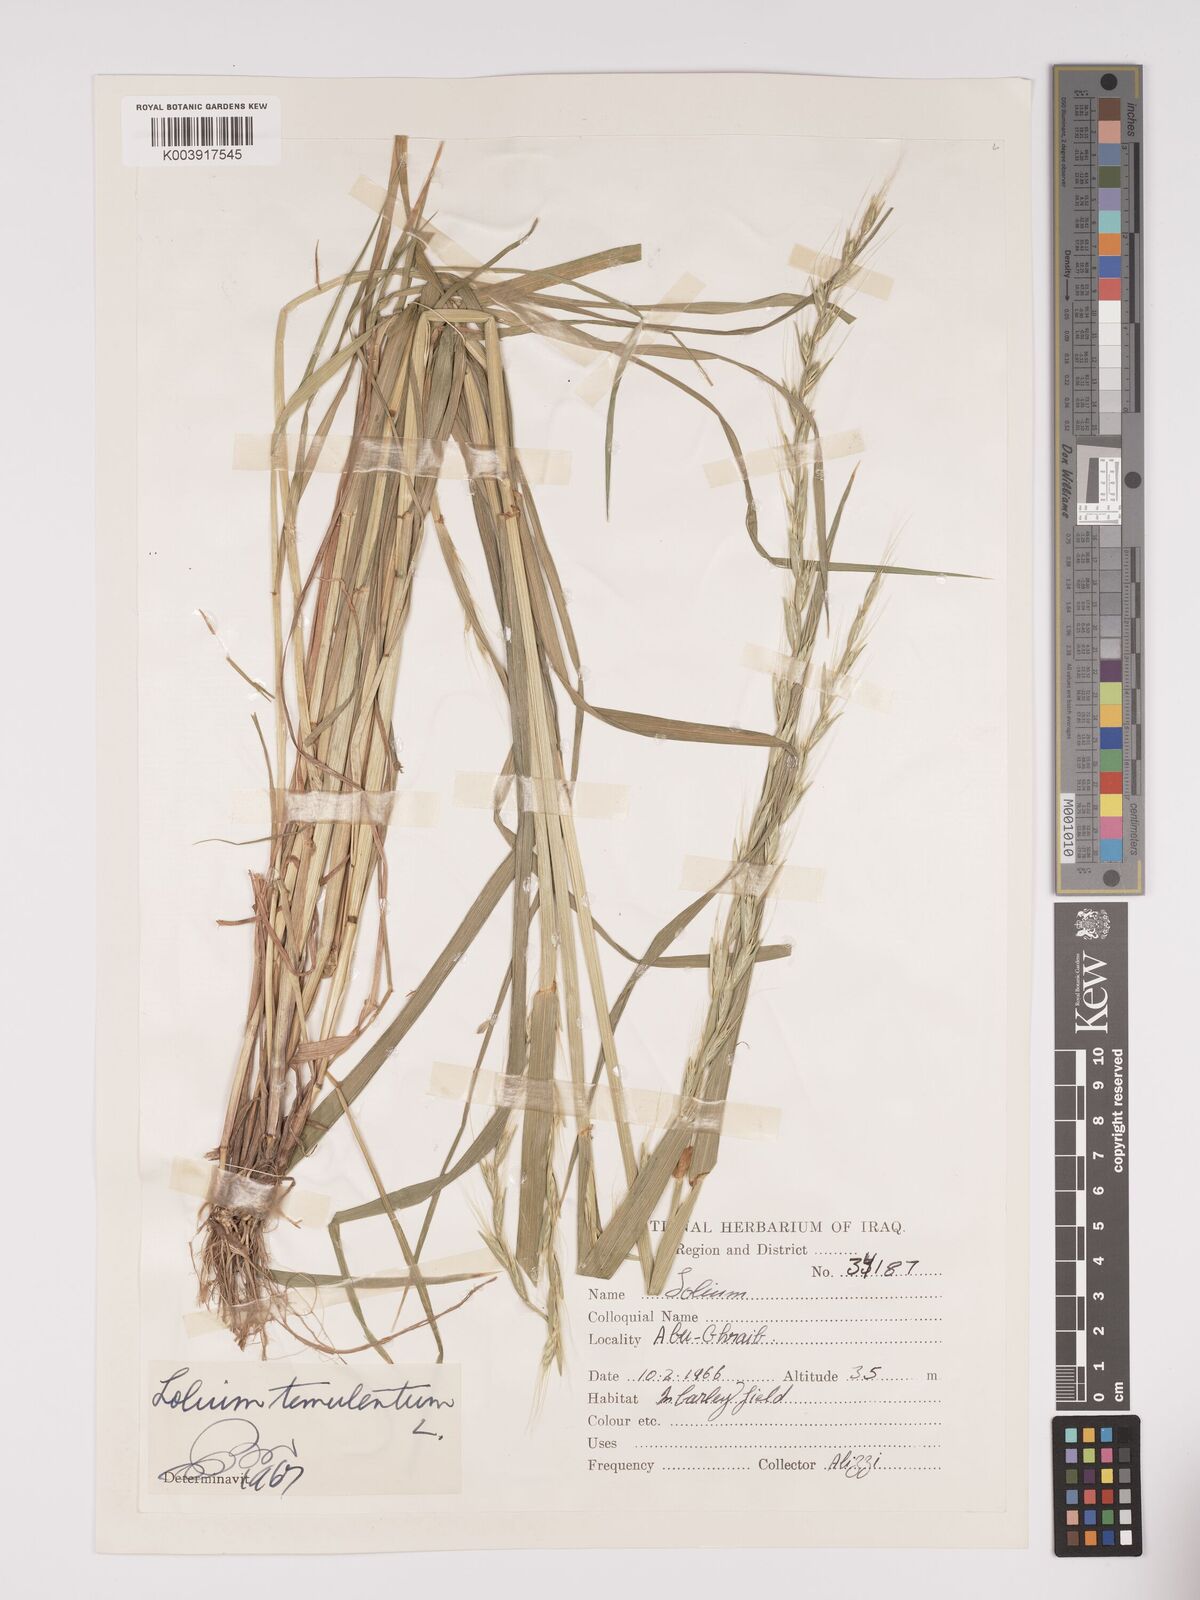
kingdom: Plantae
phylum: Tracheophyta
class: Liliopsida
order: Poales
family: Poaceae
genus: Lolium
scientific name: Lolium temulentum
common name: Darnel
